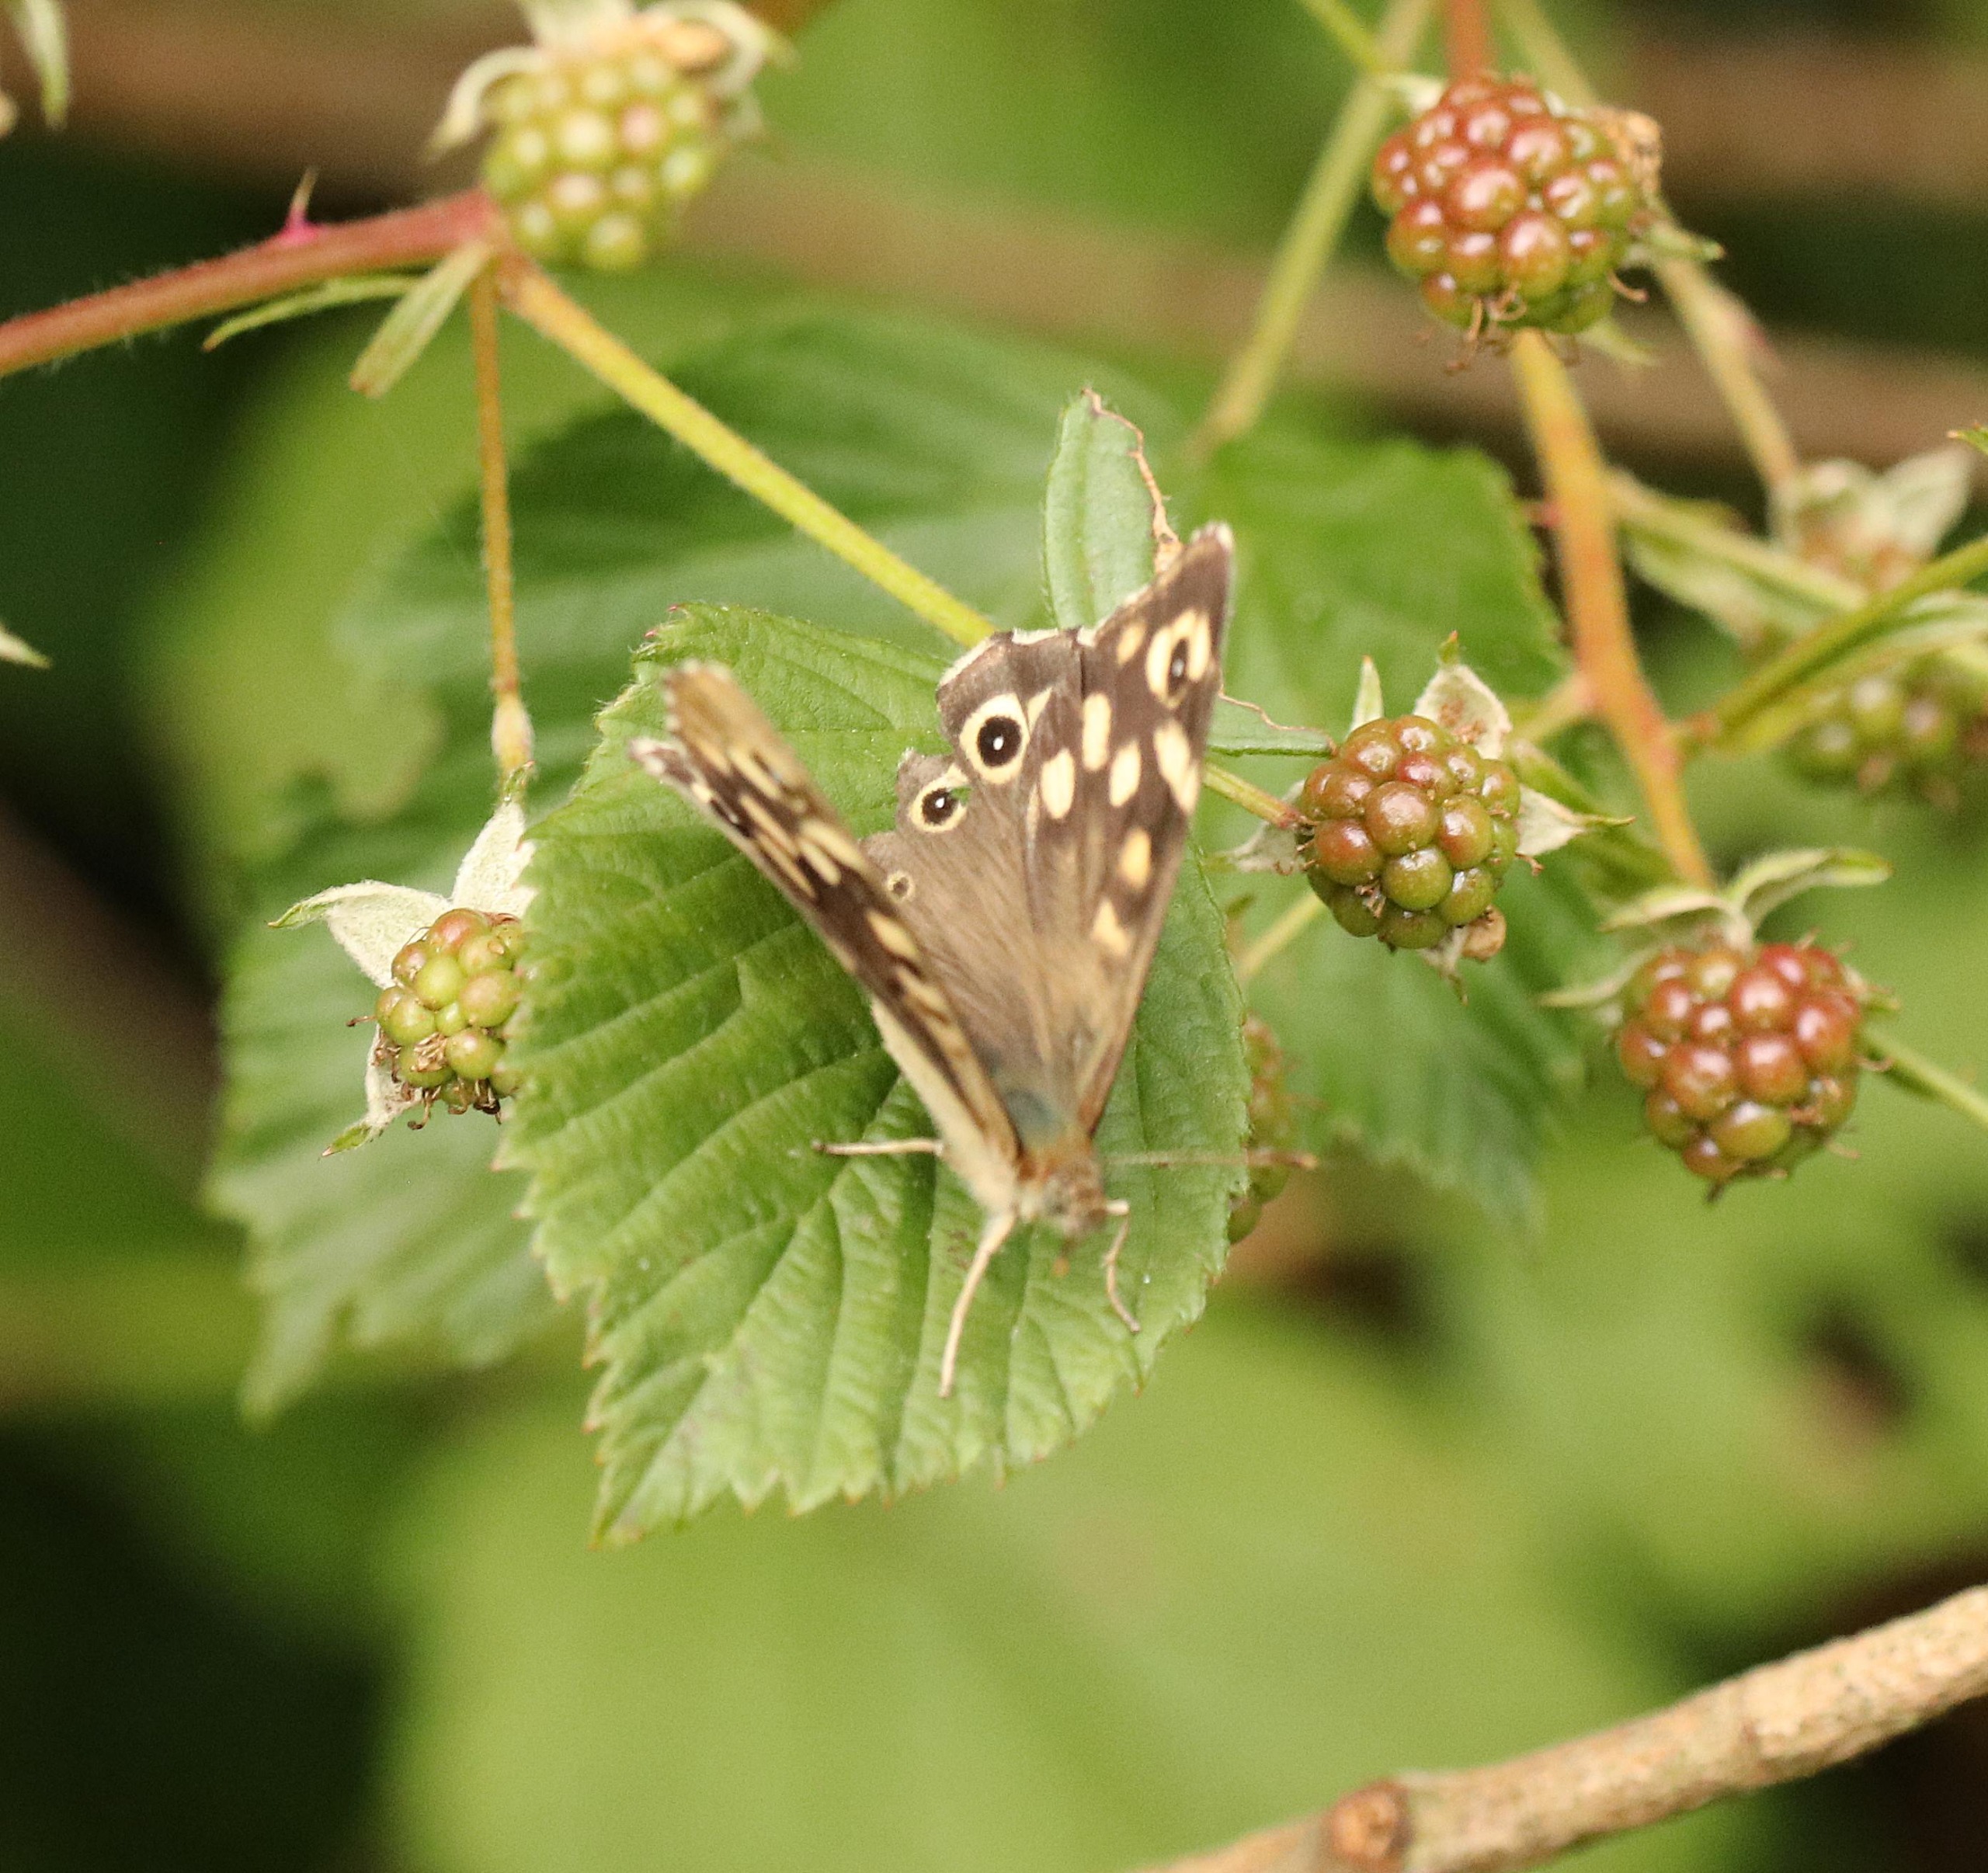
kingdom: Animalia
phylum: Arthropoda
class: Insecta
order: Lepidoptera
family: Nymphalidae
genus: Pararge
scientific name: Pararge aegeria
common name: Skovrandøje
